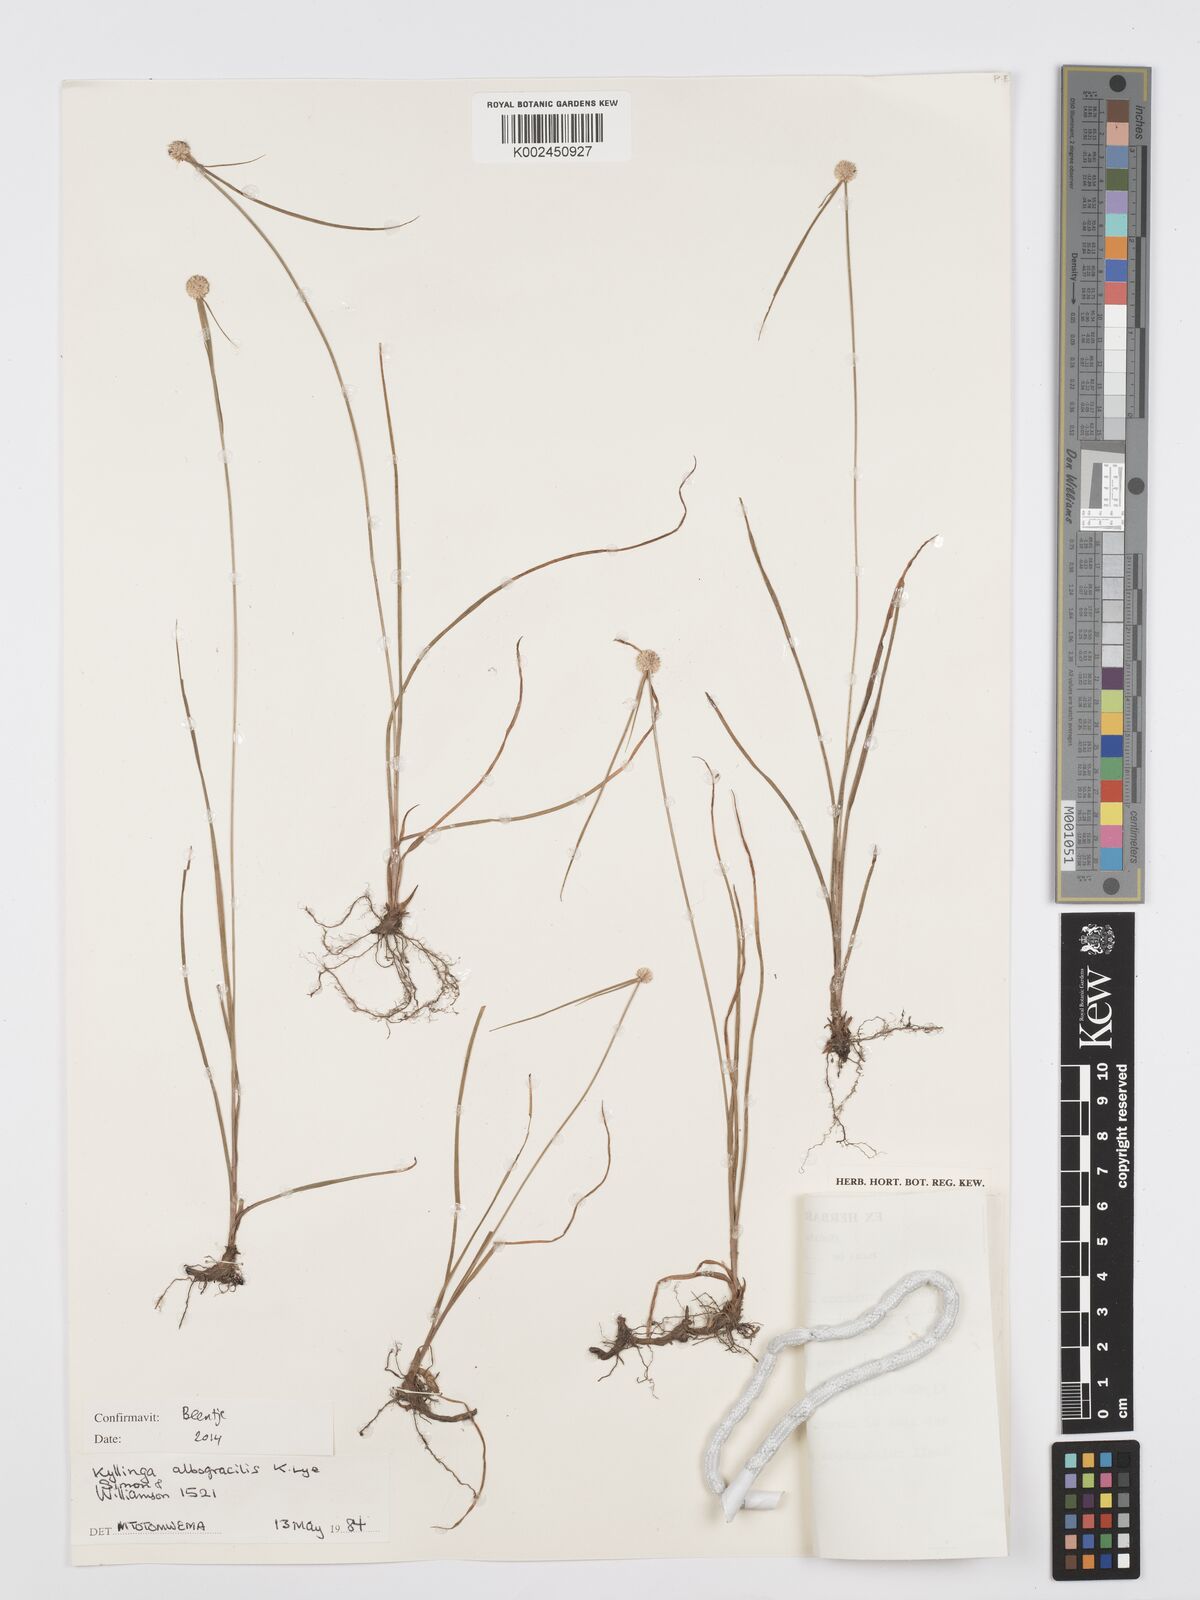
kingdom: Plantae
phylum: Tracheophyta
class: Liliopsida
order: Poales
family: Cyperaceae
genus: Cyperus
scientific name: Cyperus albogracilis
